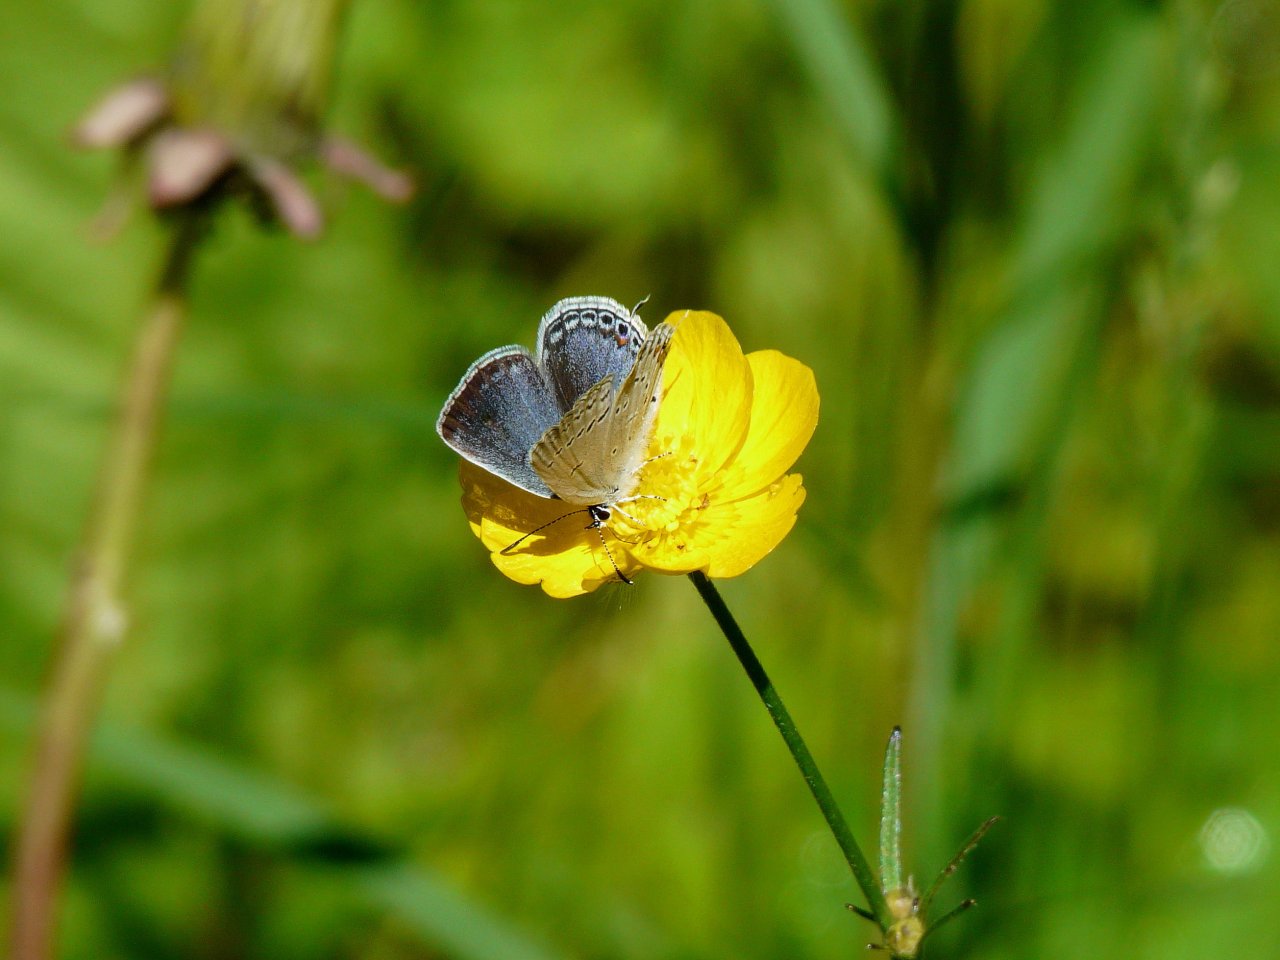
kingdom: Animalia
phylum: Arthropoda
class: Insecta
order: Lepidoptera
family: Lycaenidae
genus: Elkalyce
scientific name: Elkalyce comyntas
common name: Eastern Tailed-Blue
